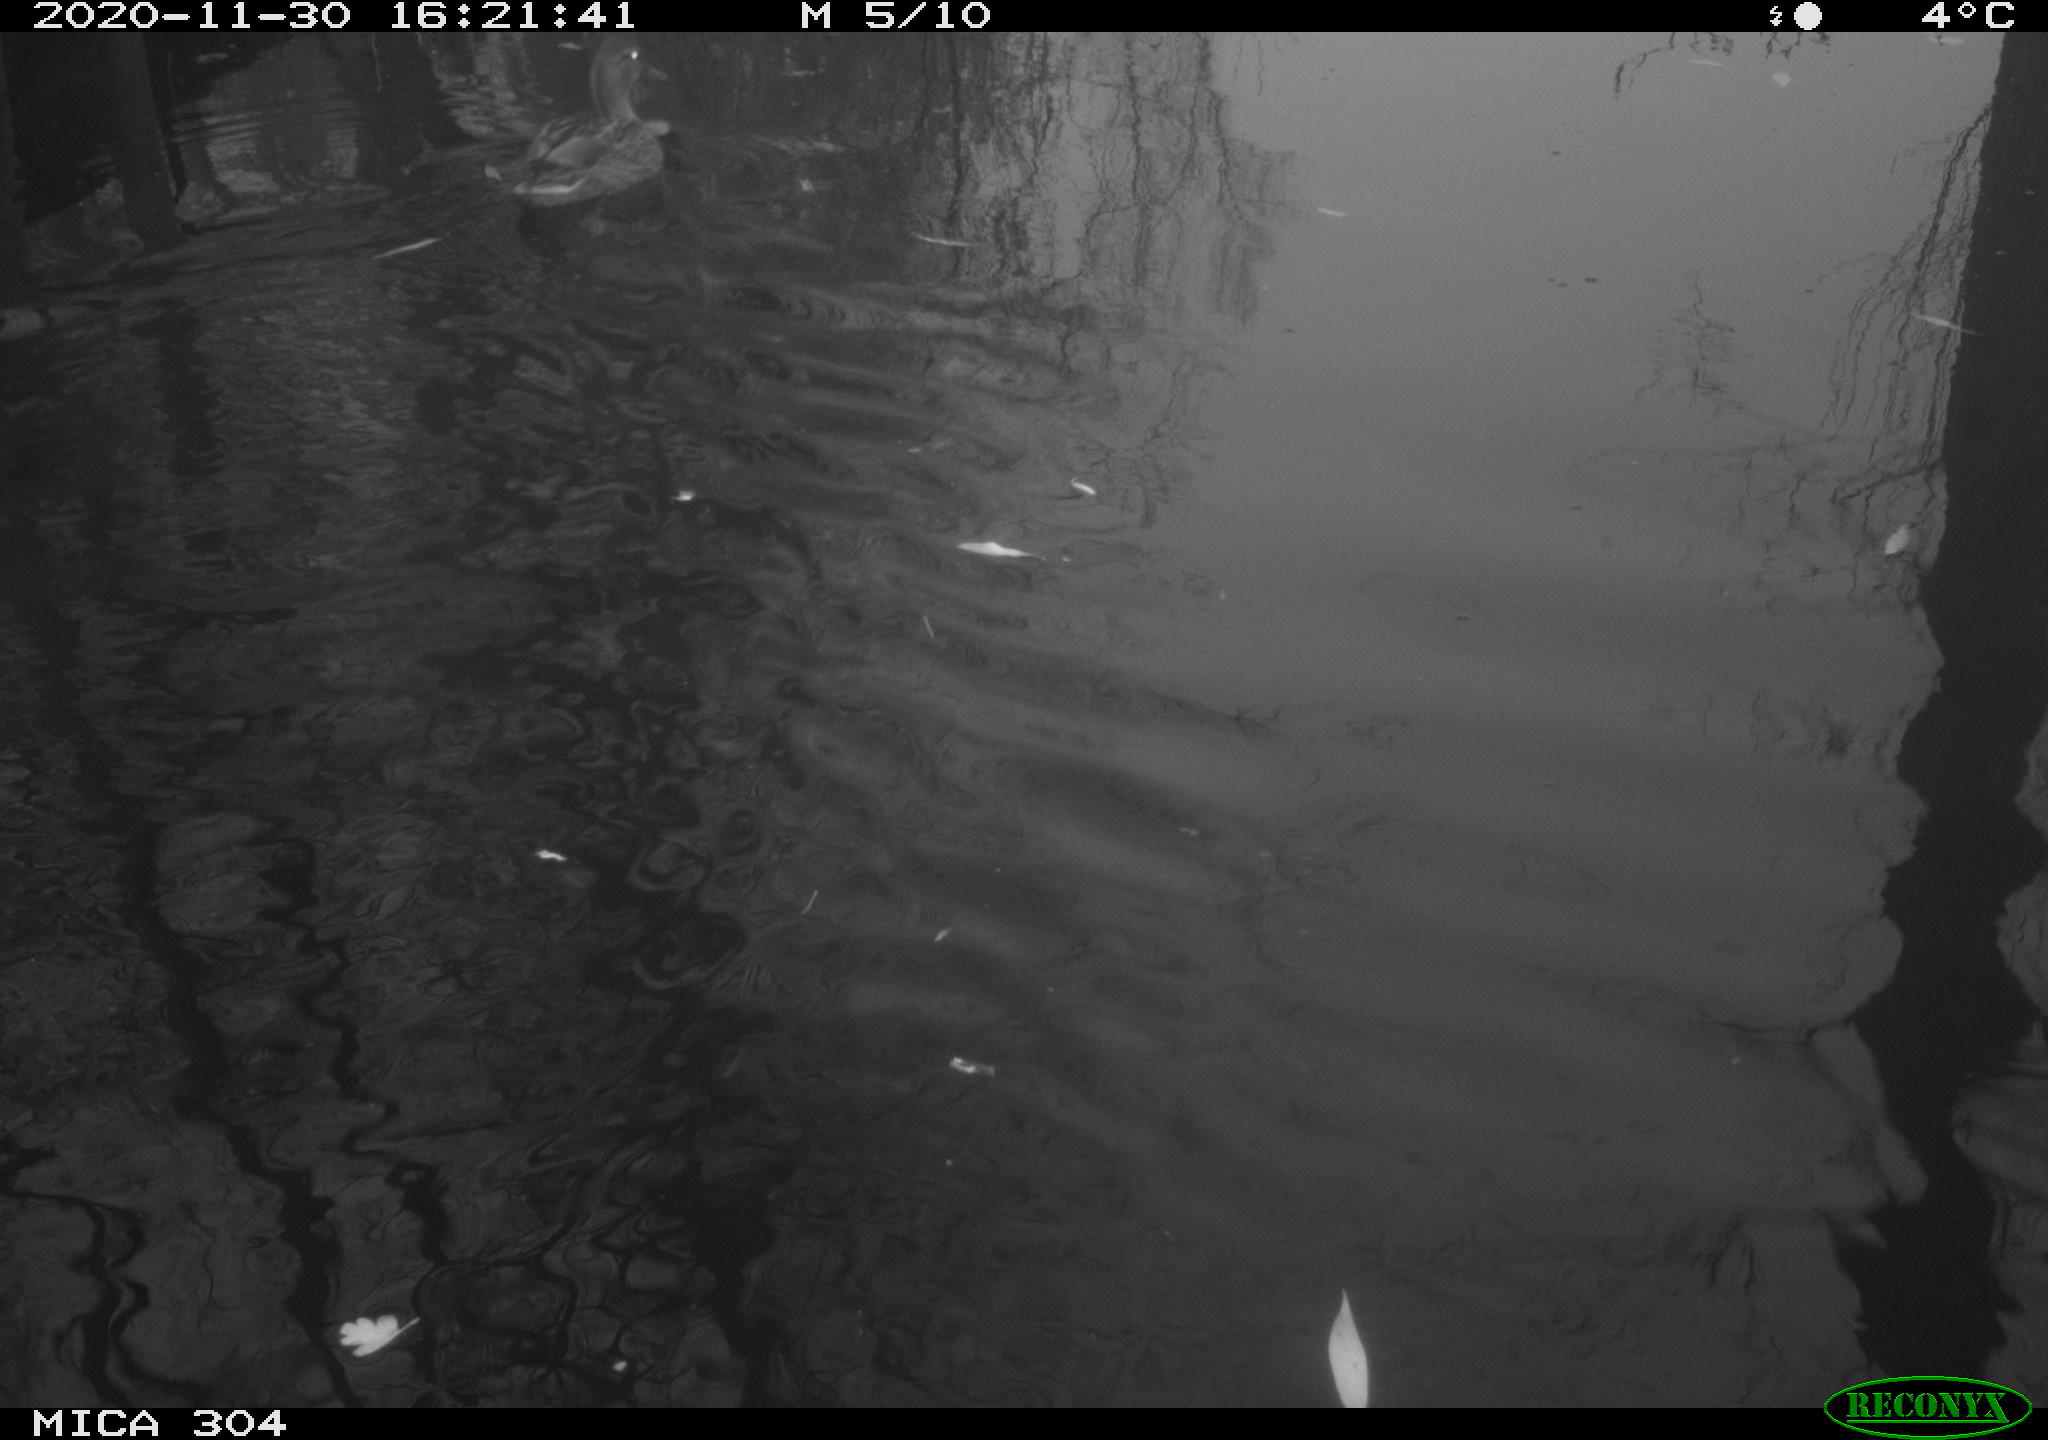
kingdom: Animalia
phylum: Chordata
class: Aves
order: Anseriformes
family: Anatidae
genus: Anas
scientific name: Anas platyrhynchos
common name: Mallard
